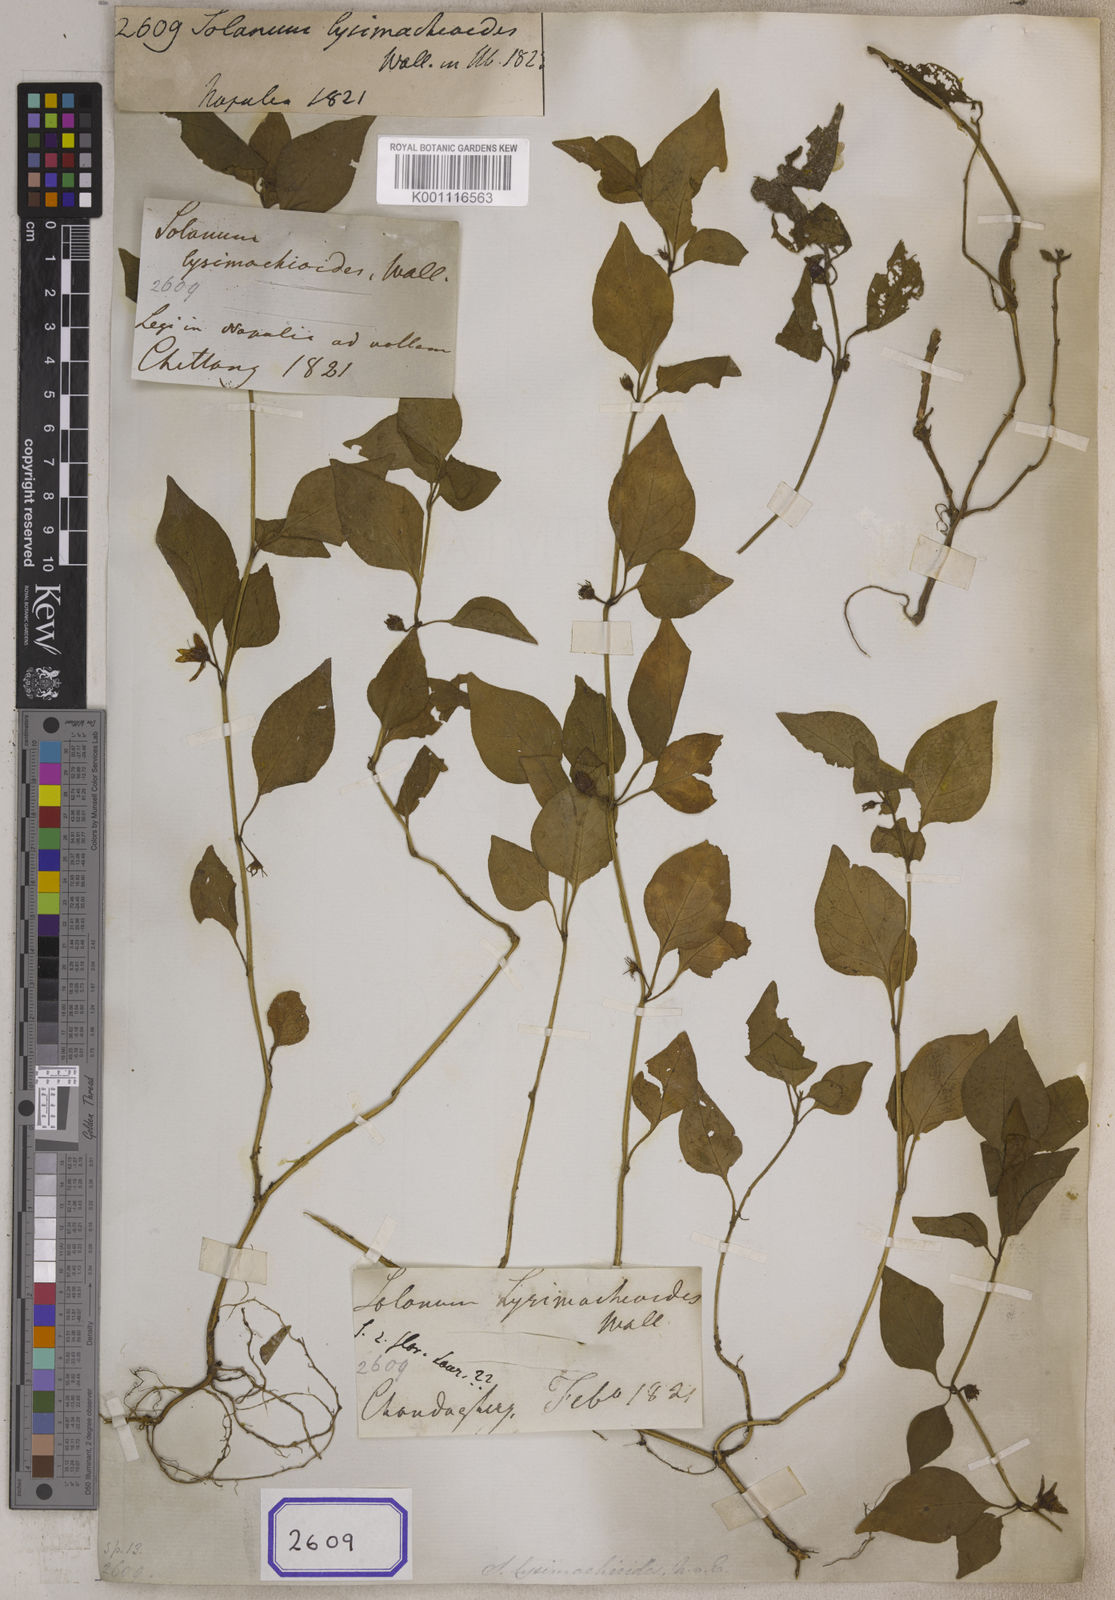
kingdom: Plantae
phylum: Tracheophyta
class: Magnoliopsida
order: Solanales
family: Solanaceae
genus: Lycianthes
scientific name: Lycianthes lysimachioides
